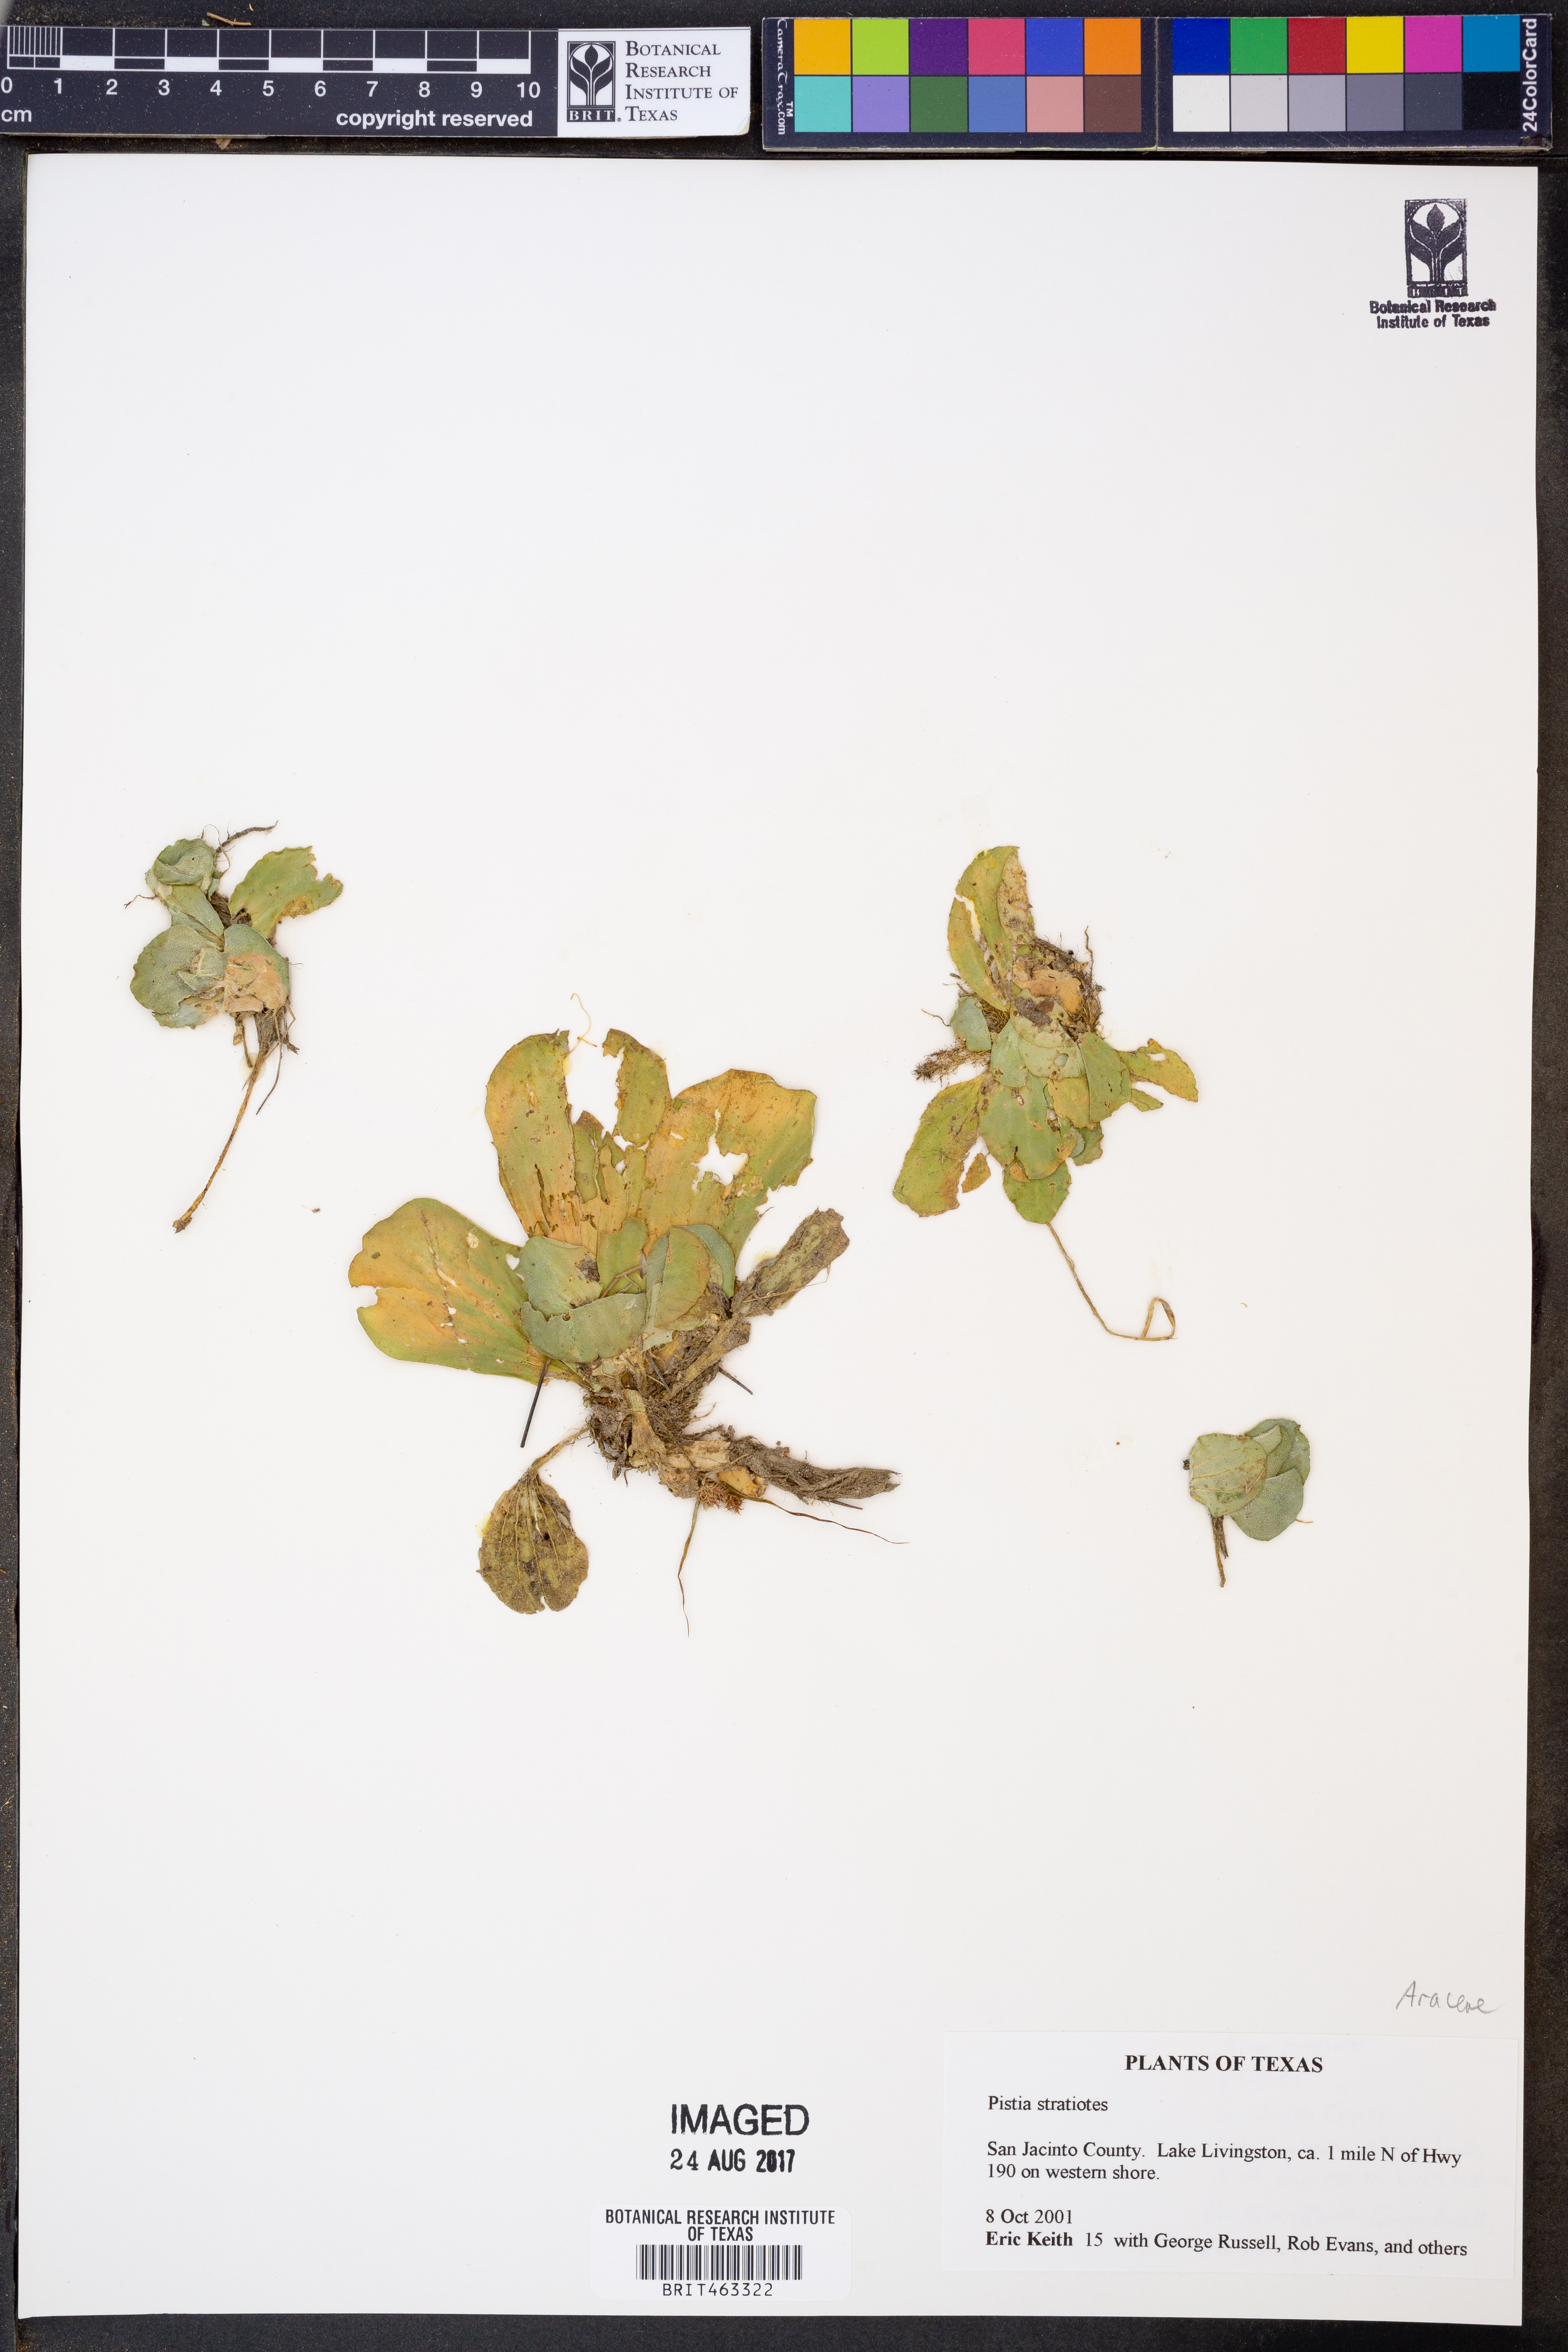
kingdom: Plantae
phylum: Tracheophyta
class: Liliopsida
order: Alismatales
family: Araceae
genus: Pistia
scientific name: Pistia stratiotes
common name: Water lettuce
